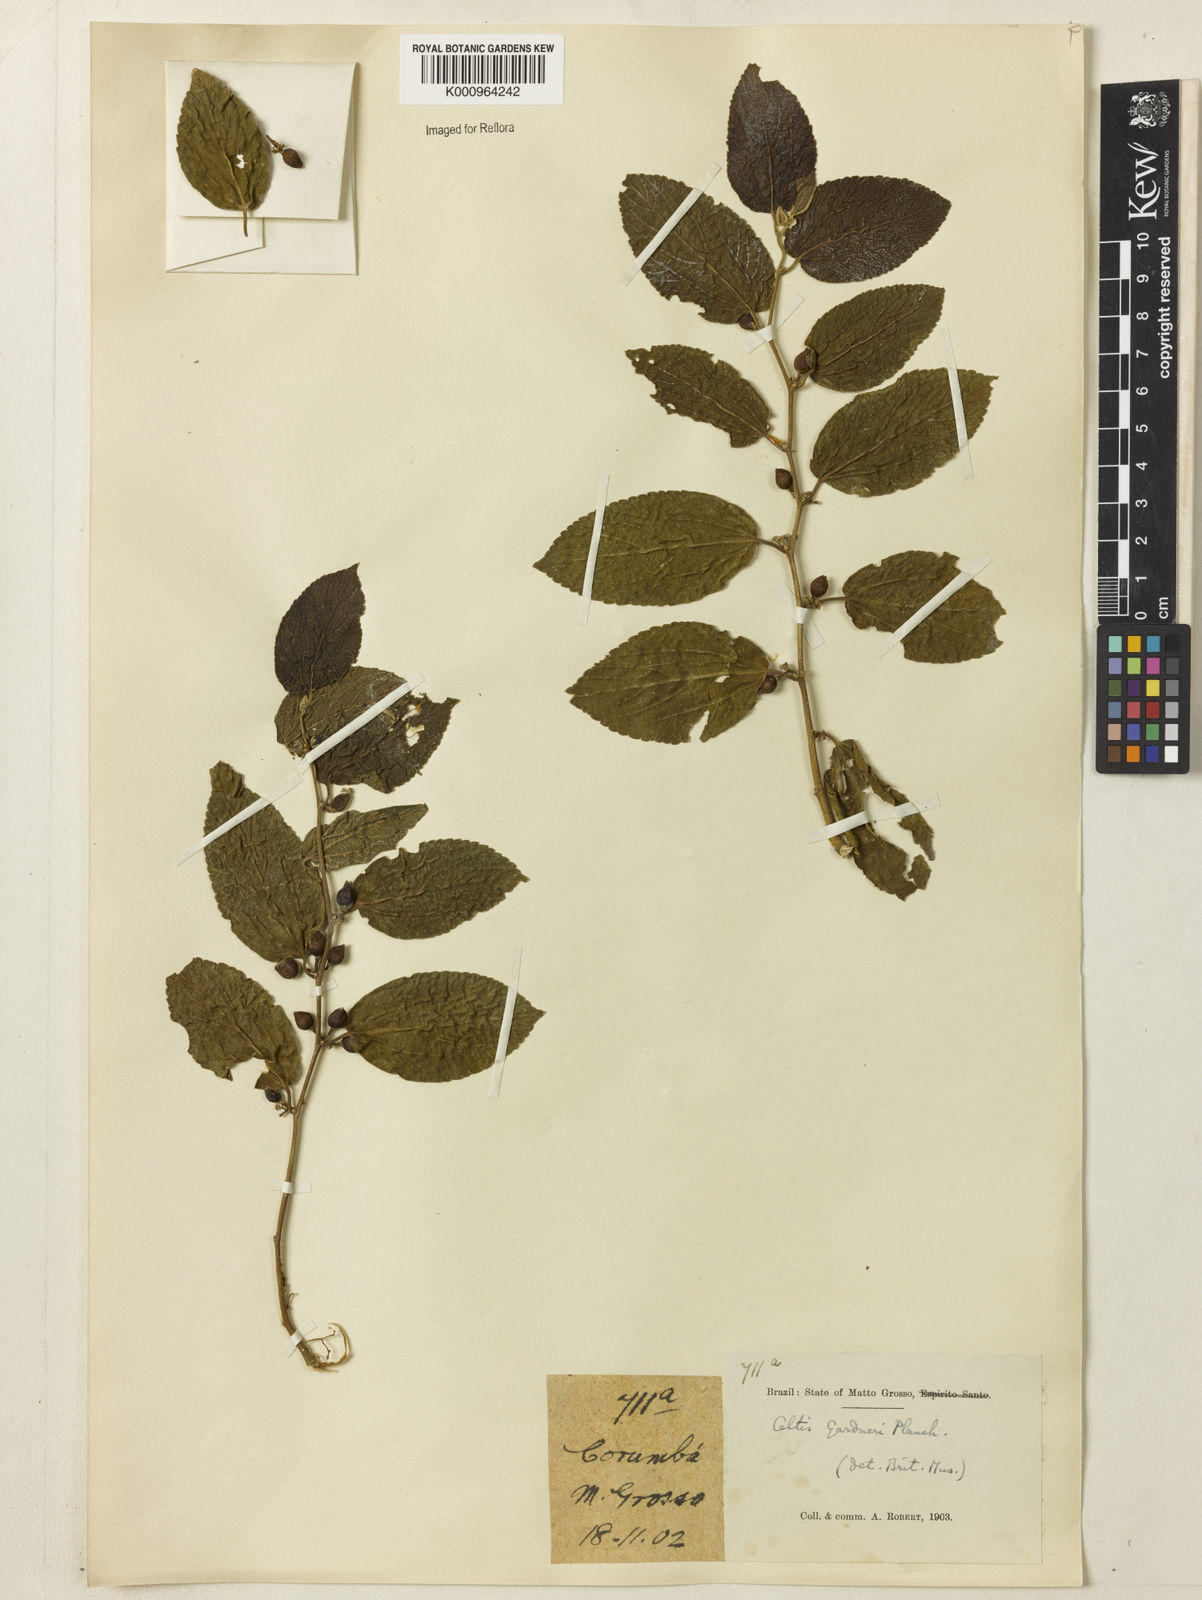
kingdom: Plantae
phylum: Tracheophyta
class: Magnoliopsida
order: Rosales
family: Cannabaceae
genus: Celtis
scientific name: Celtis iguanaea
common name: Iguana hackberry
